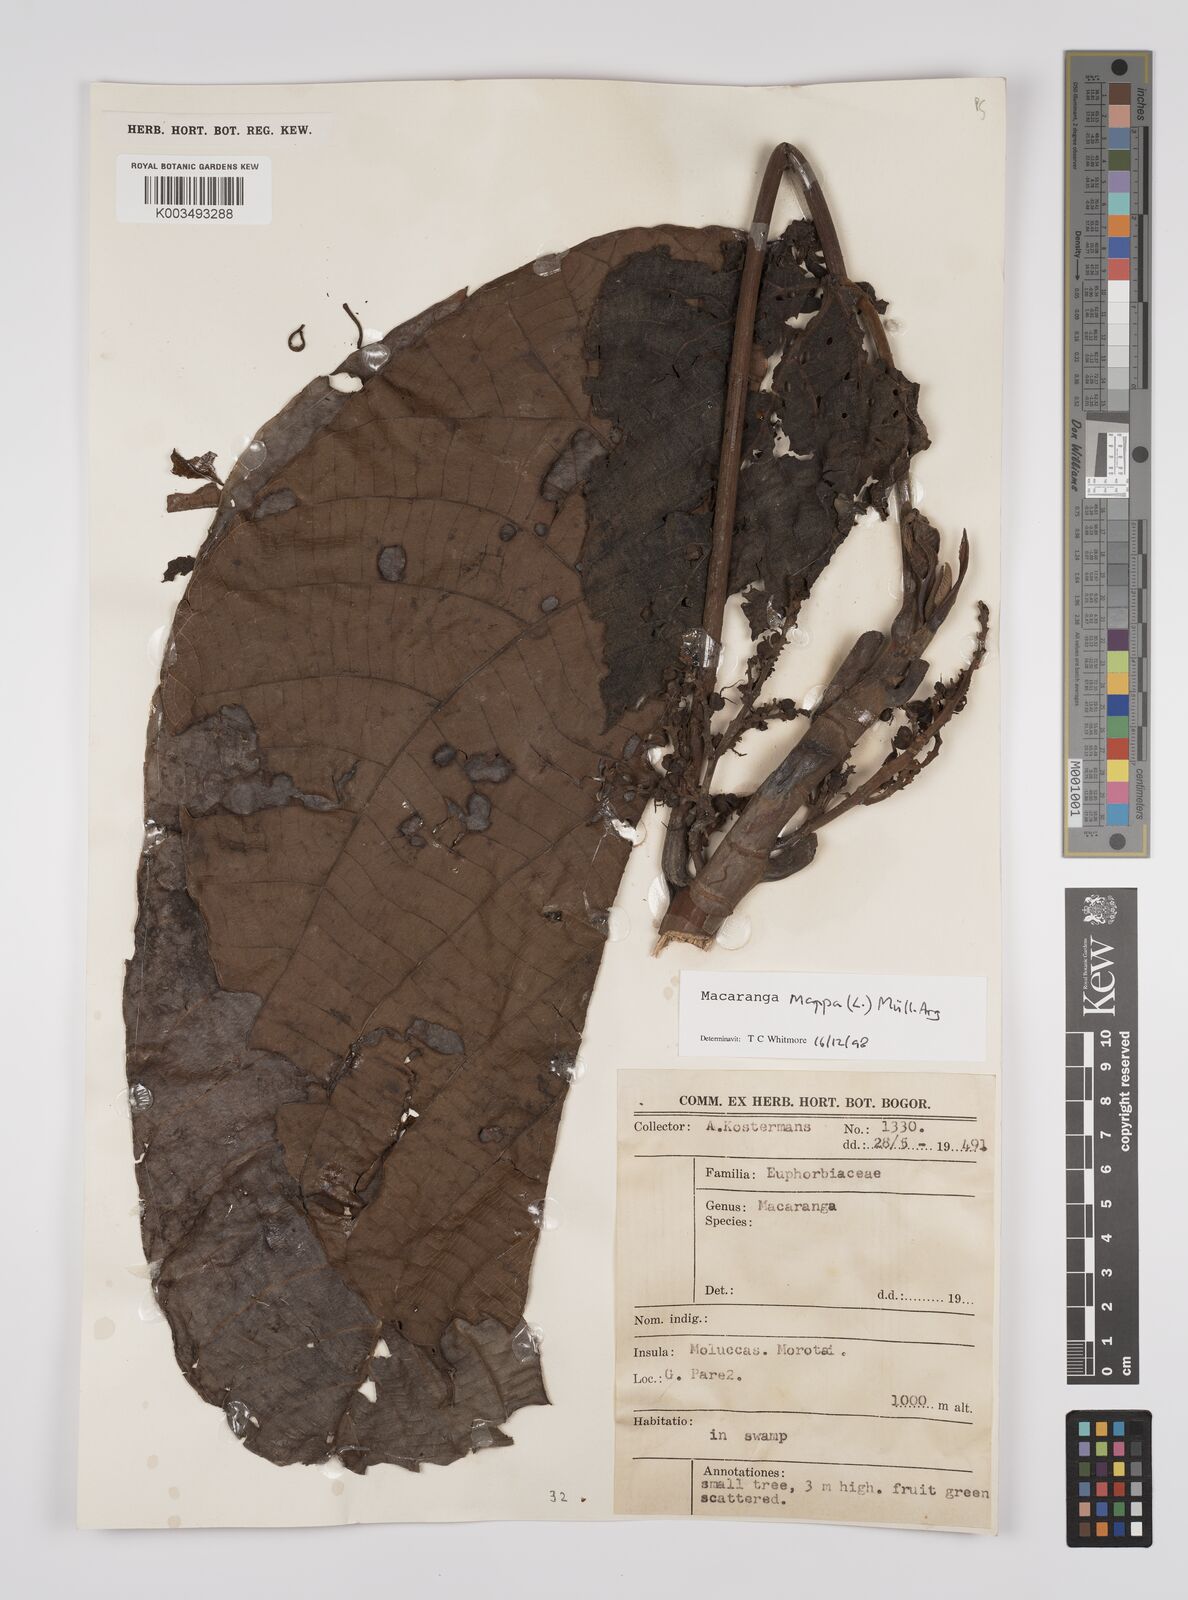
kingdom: Plantae
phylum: Tracheophyta
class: Magnoliopsida
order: Malpighiales
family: Euphorbiaceae
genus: Macaranga
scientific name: Macaranga mappa
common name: Pengua
